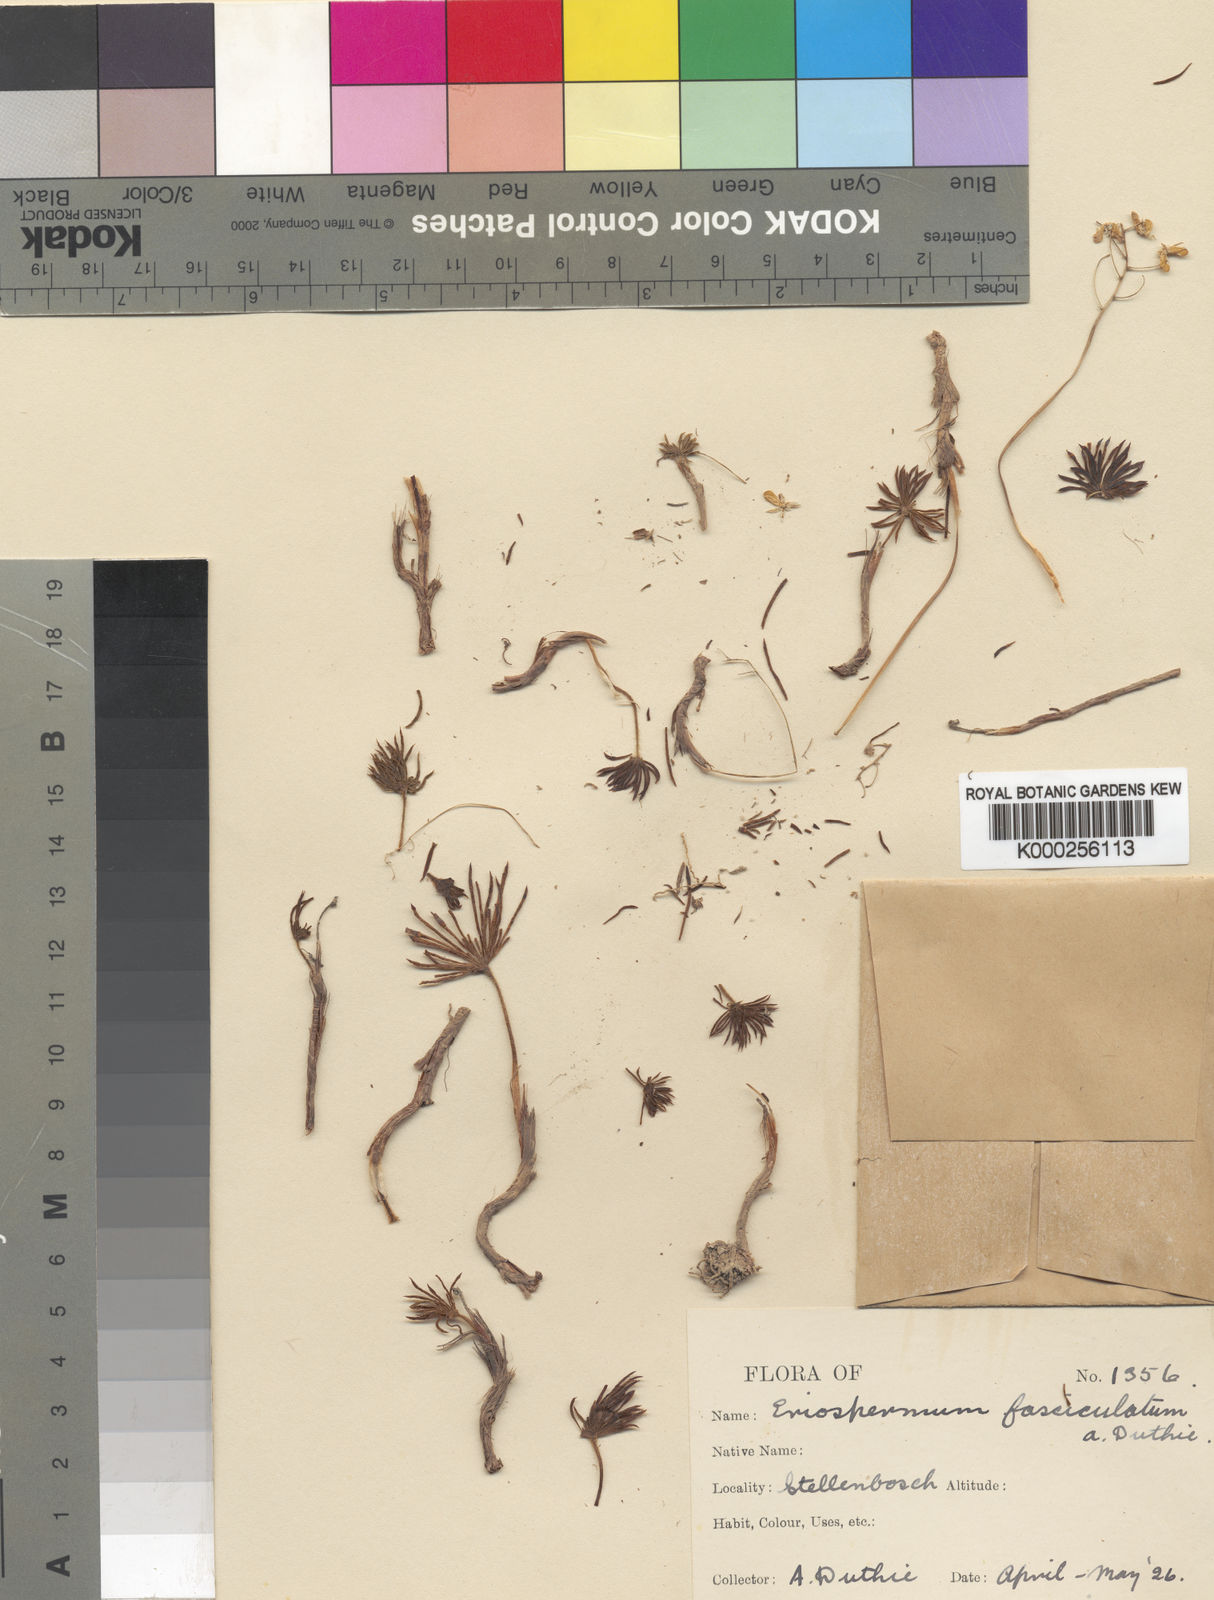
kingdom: Plantae
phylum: Tracheophyta
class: Liliopsida
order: Asparagales
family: Asparagaceae
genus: Eriospermum
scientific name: Eriospermum proliferum
